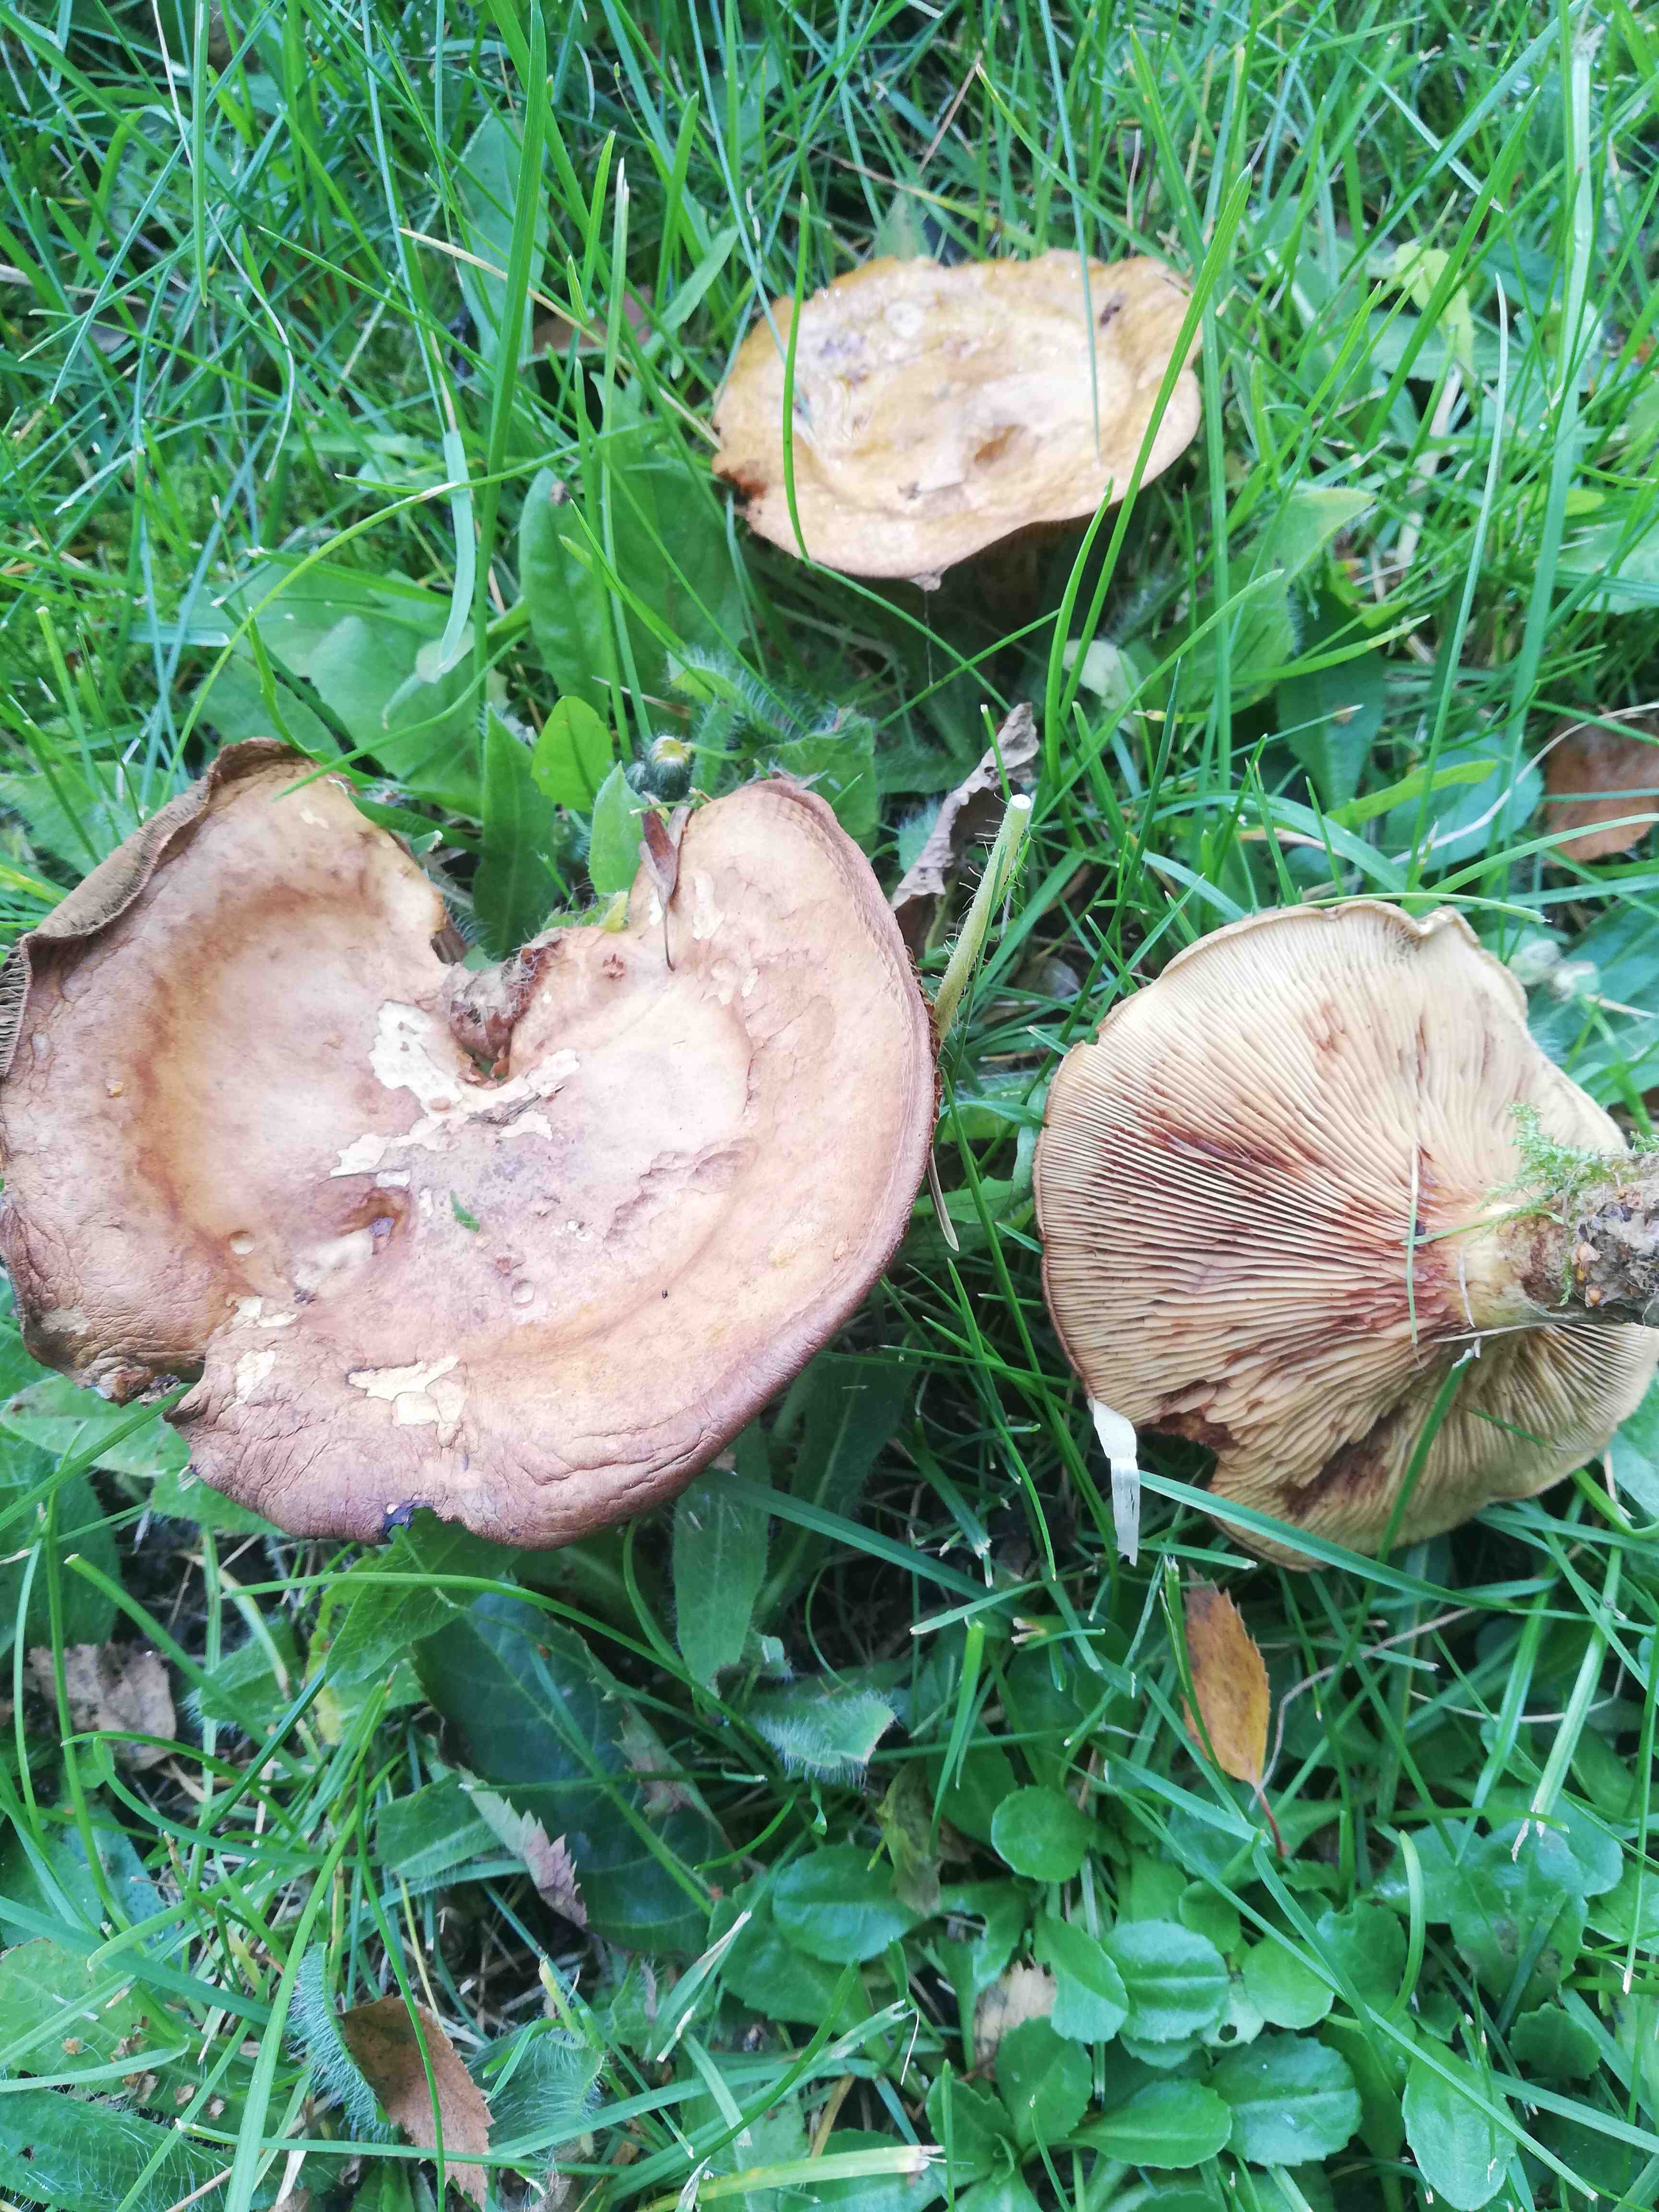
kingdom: Fungi
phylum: Basidiomycota
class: Agaricomycetes
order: Boletales
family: Paxillaceae
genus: Paxillus
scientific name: Paxillus
